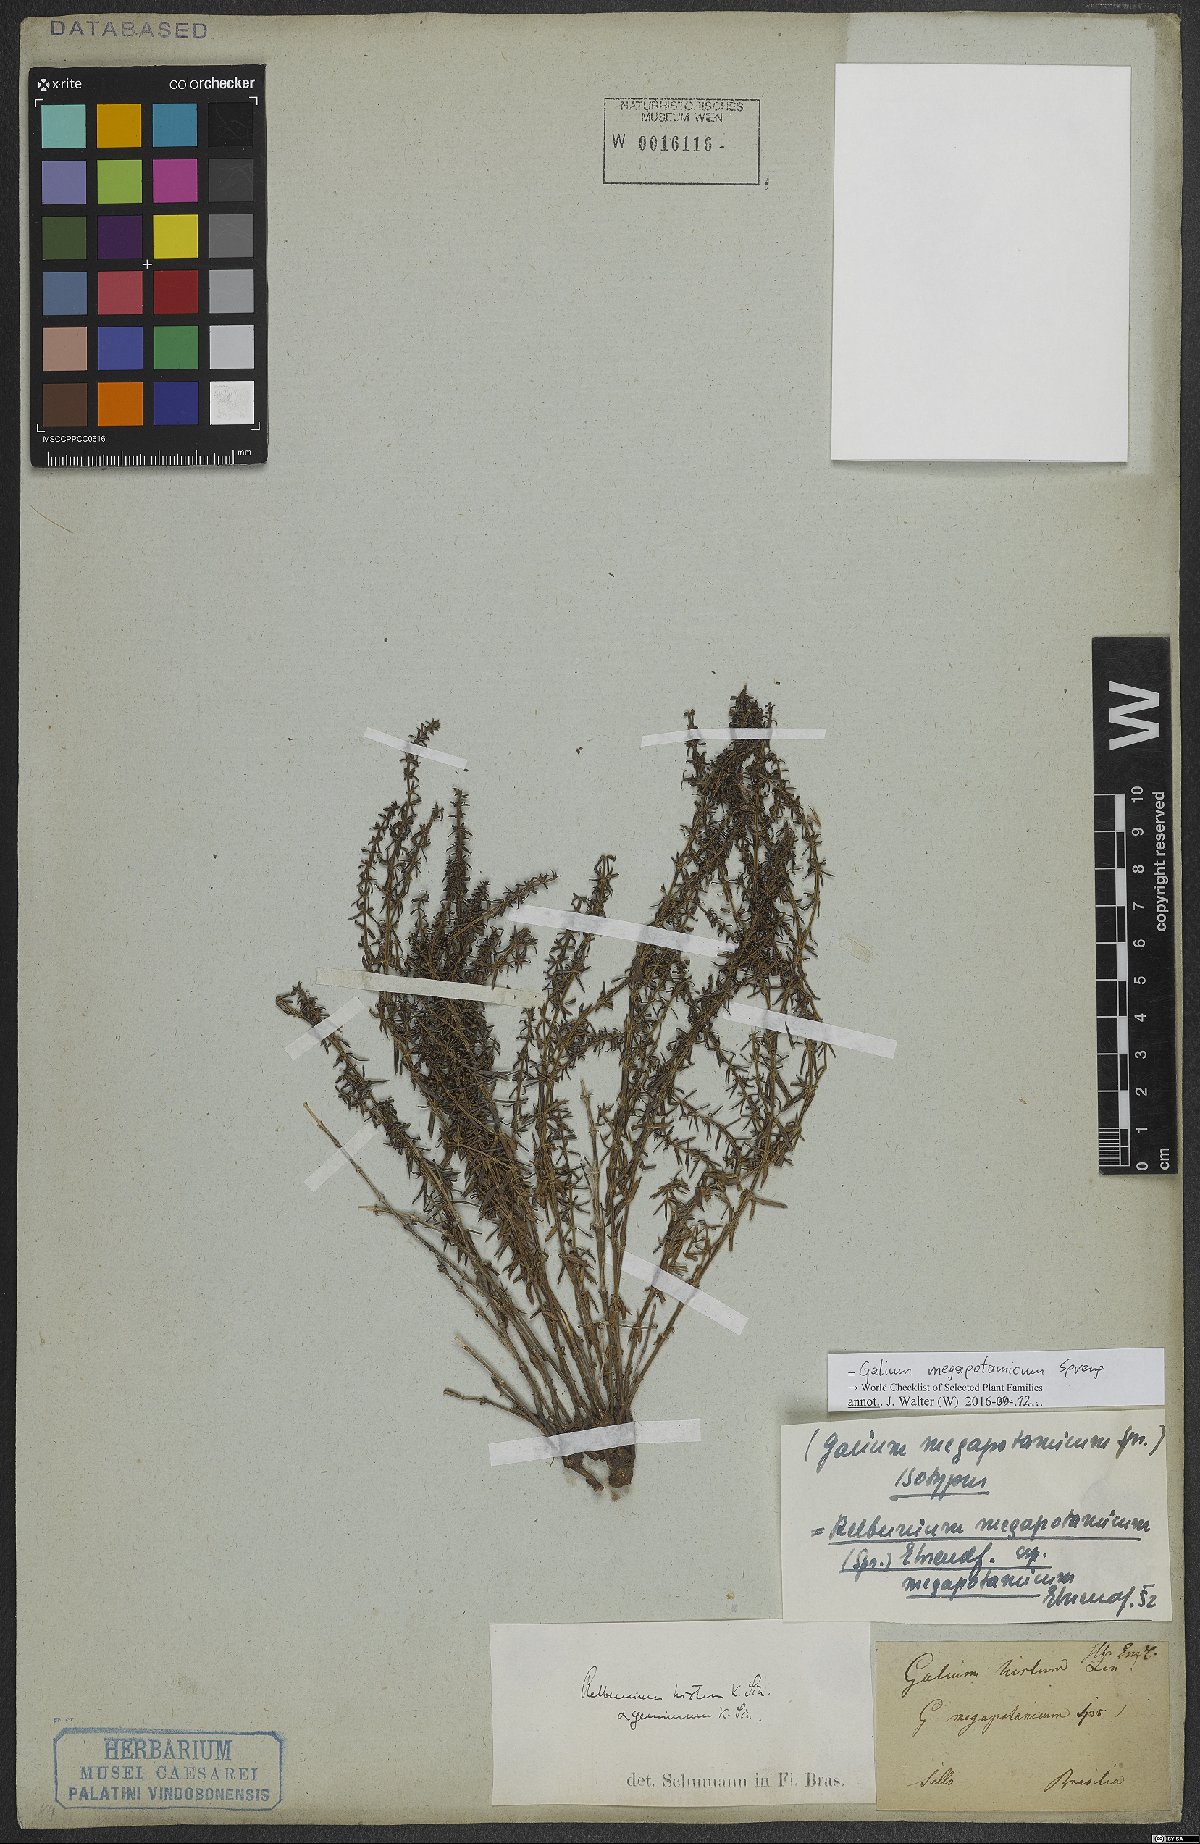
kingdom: Plantae
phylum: Tracheophyta
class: Magnoliopsida
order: Gentianales
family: Rubiaceae
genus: Galium
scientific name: Galium megapotamicum
